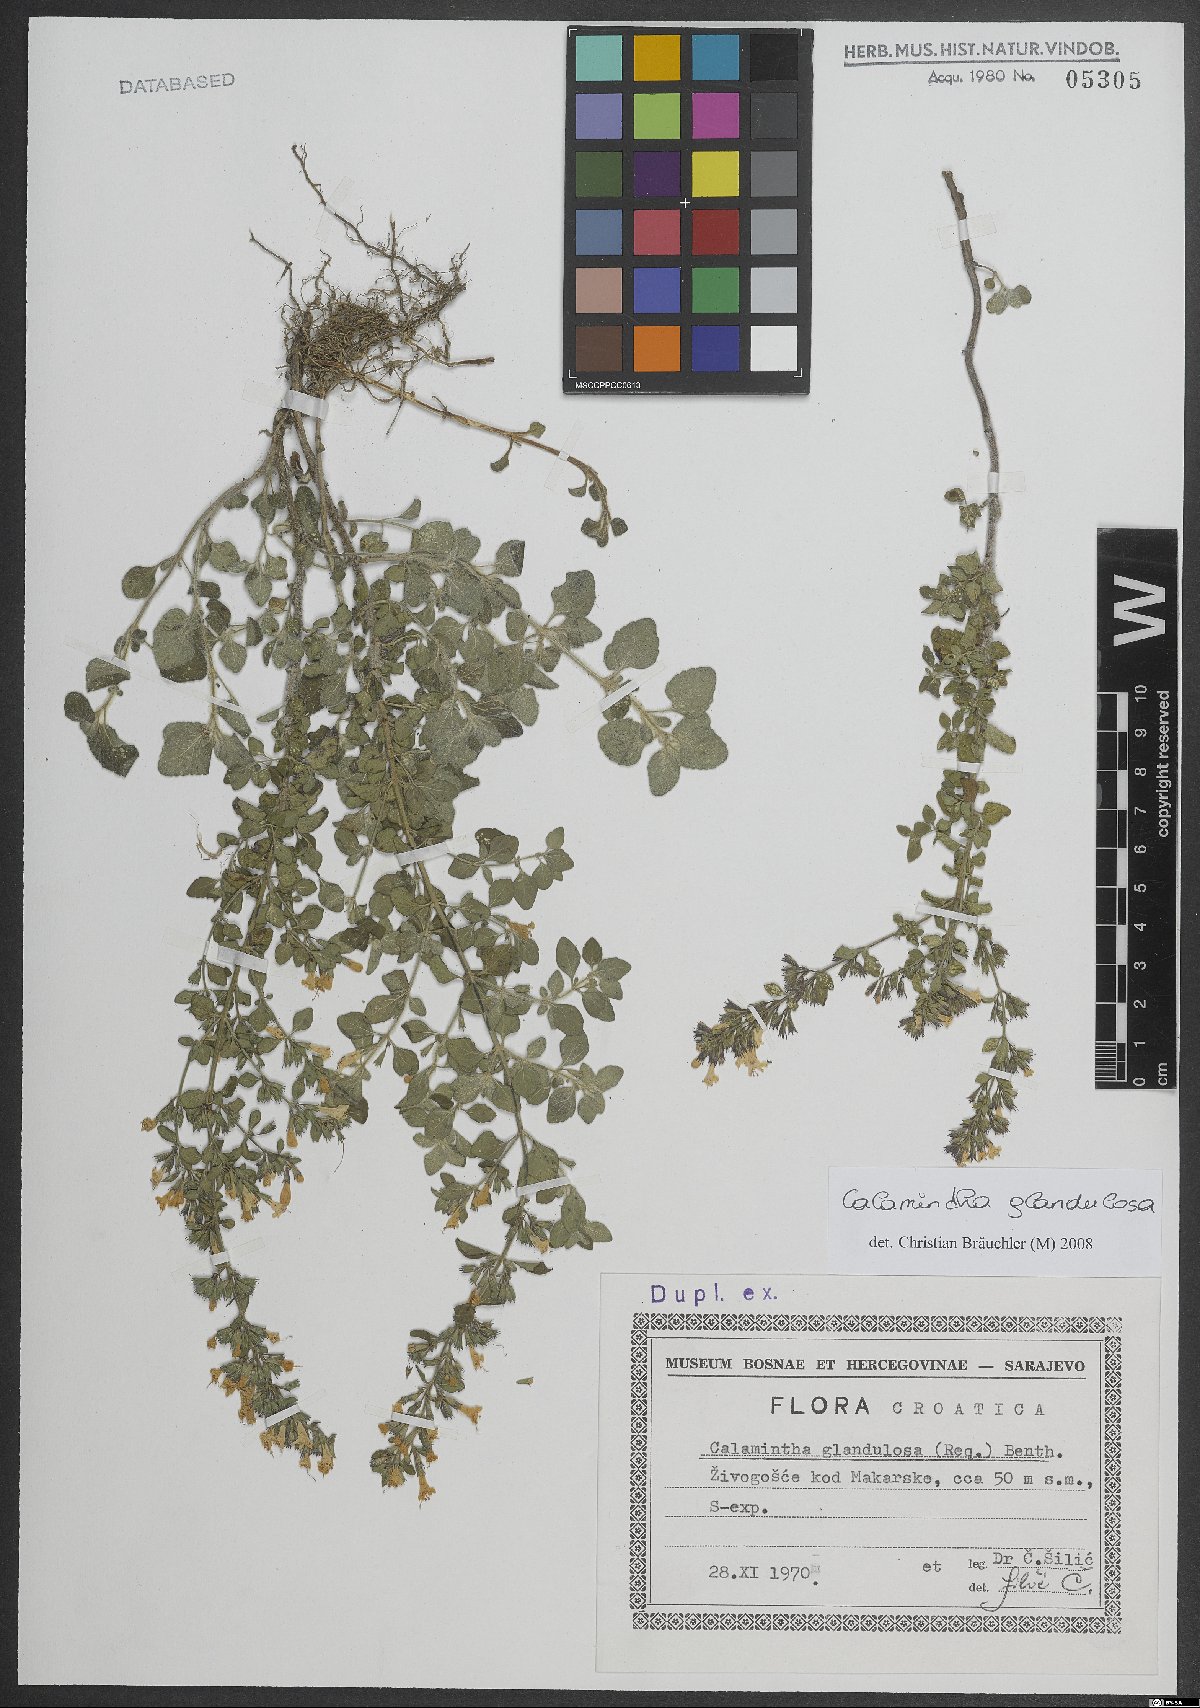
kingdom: Plantae
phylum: Tracheophyta
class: Magnoliopsida
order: Lamiales
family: Lamiaceae
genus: Clinopodium
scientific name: Clinopodium nepeta
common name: Lesser calamint
